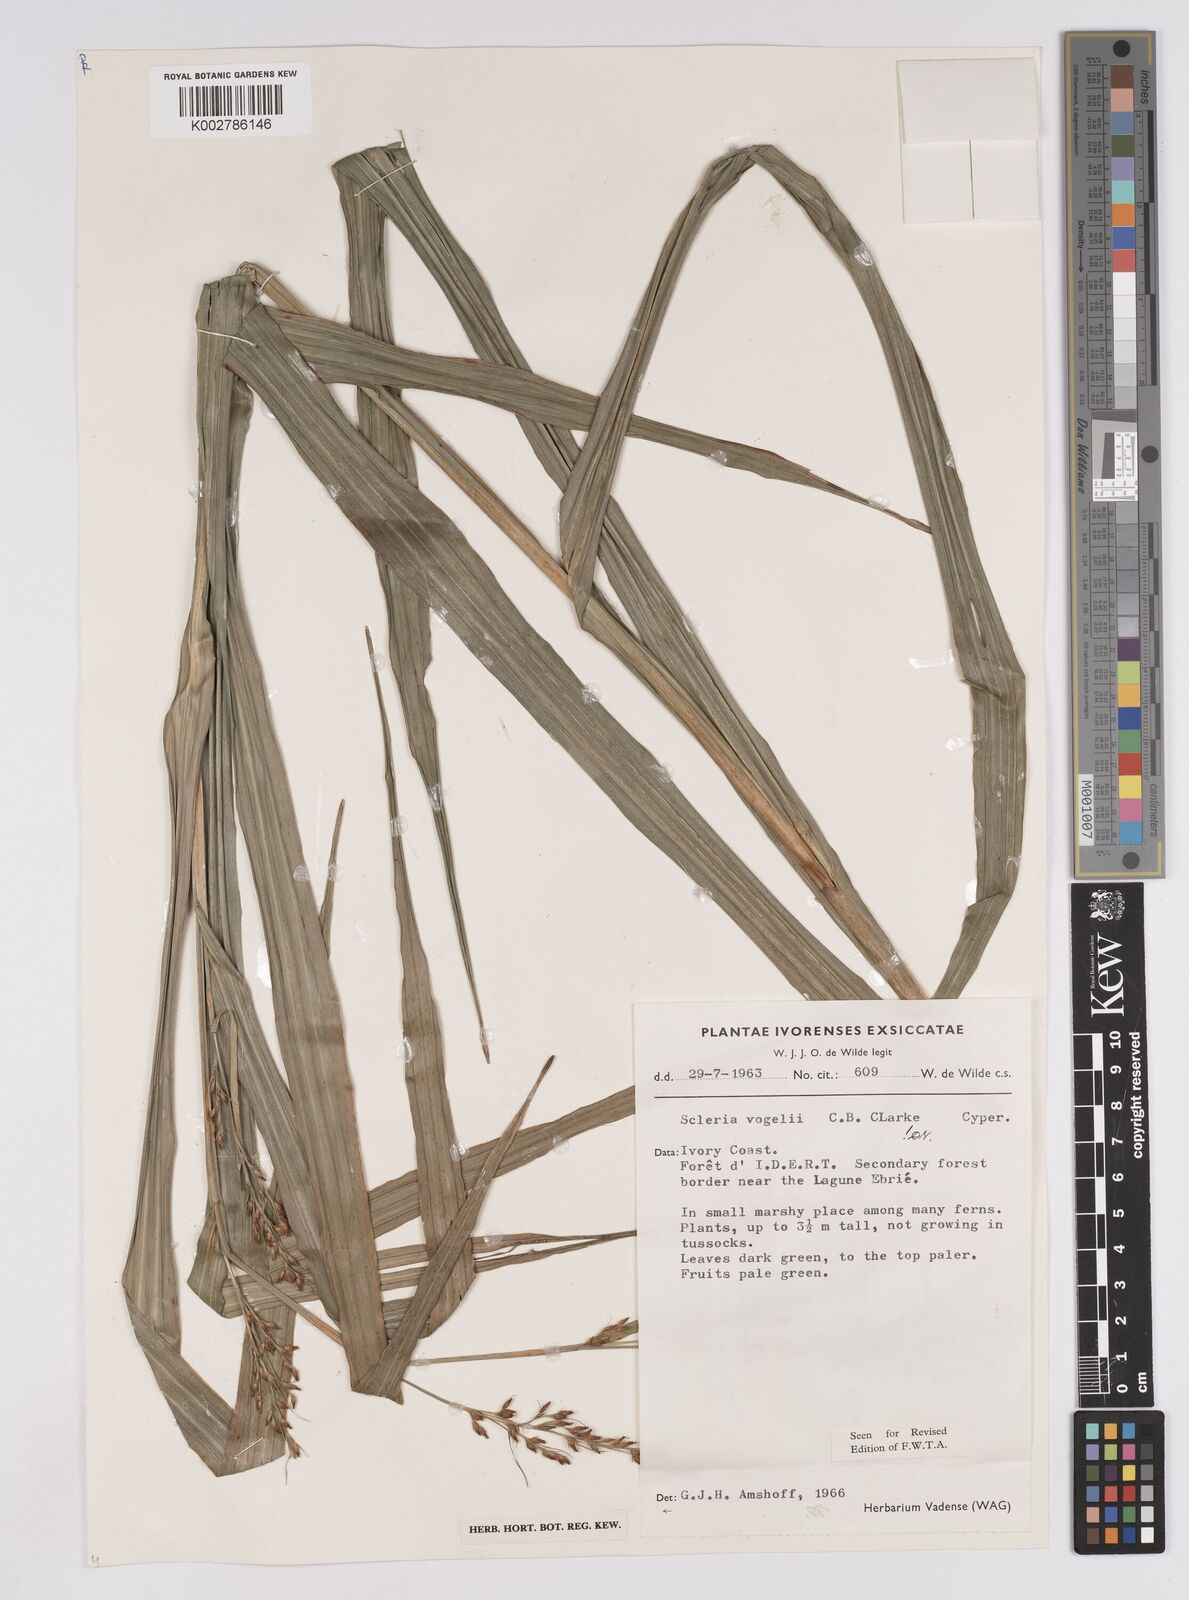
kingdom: Plantae
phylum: Tracheophyta
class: Liliopsida
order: Poales
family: Cyperaceae
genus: Scleria
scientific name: Scleria vogelii
